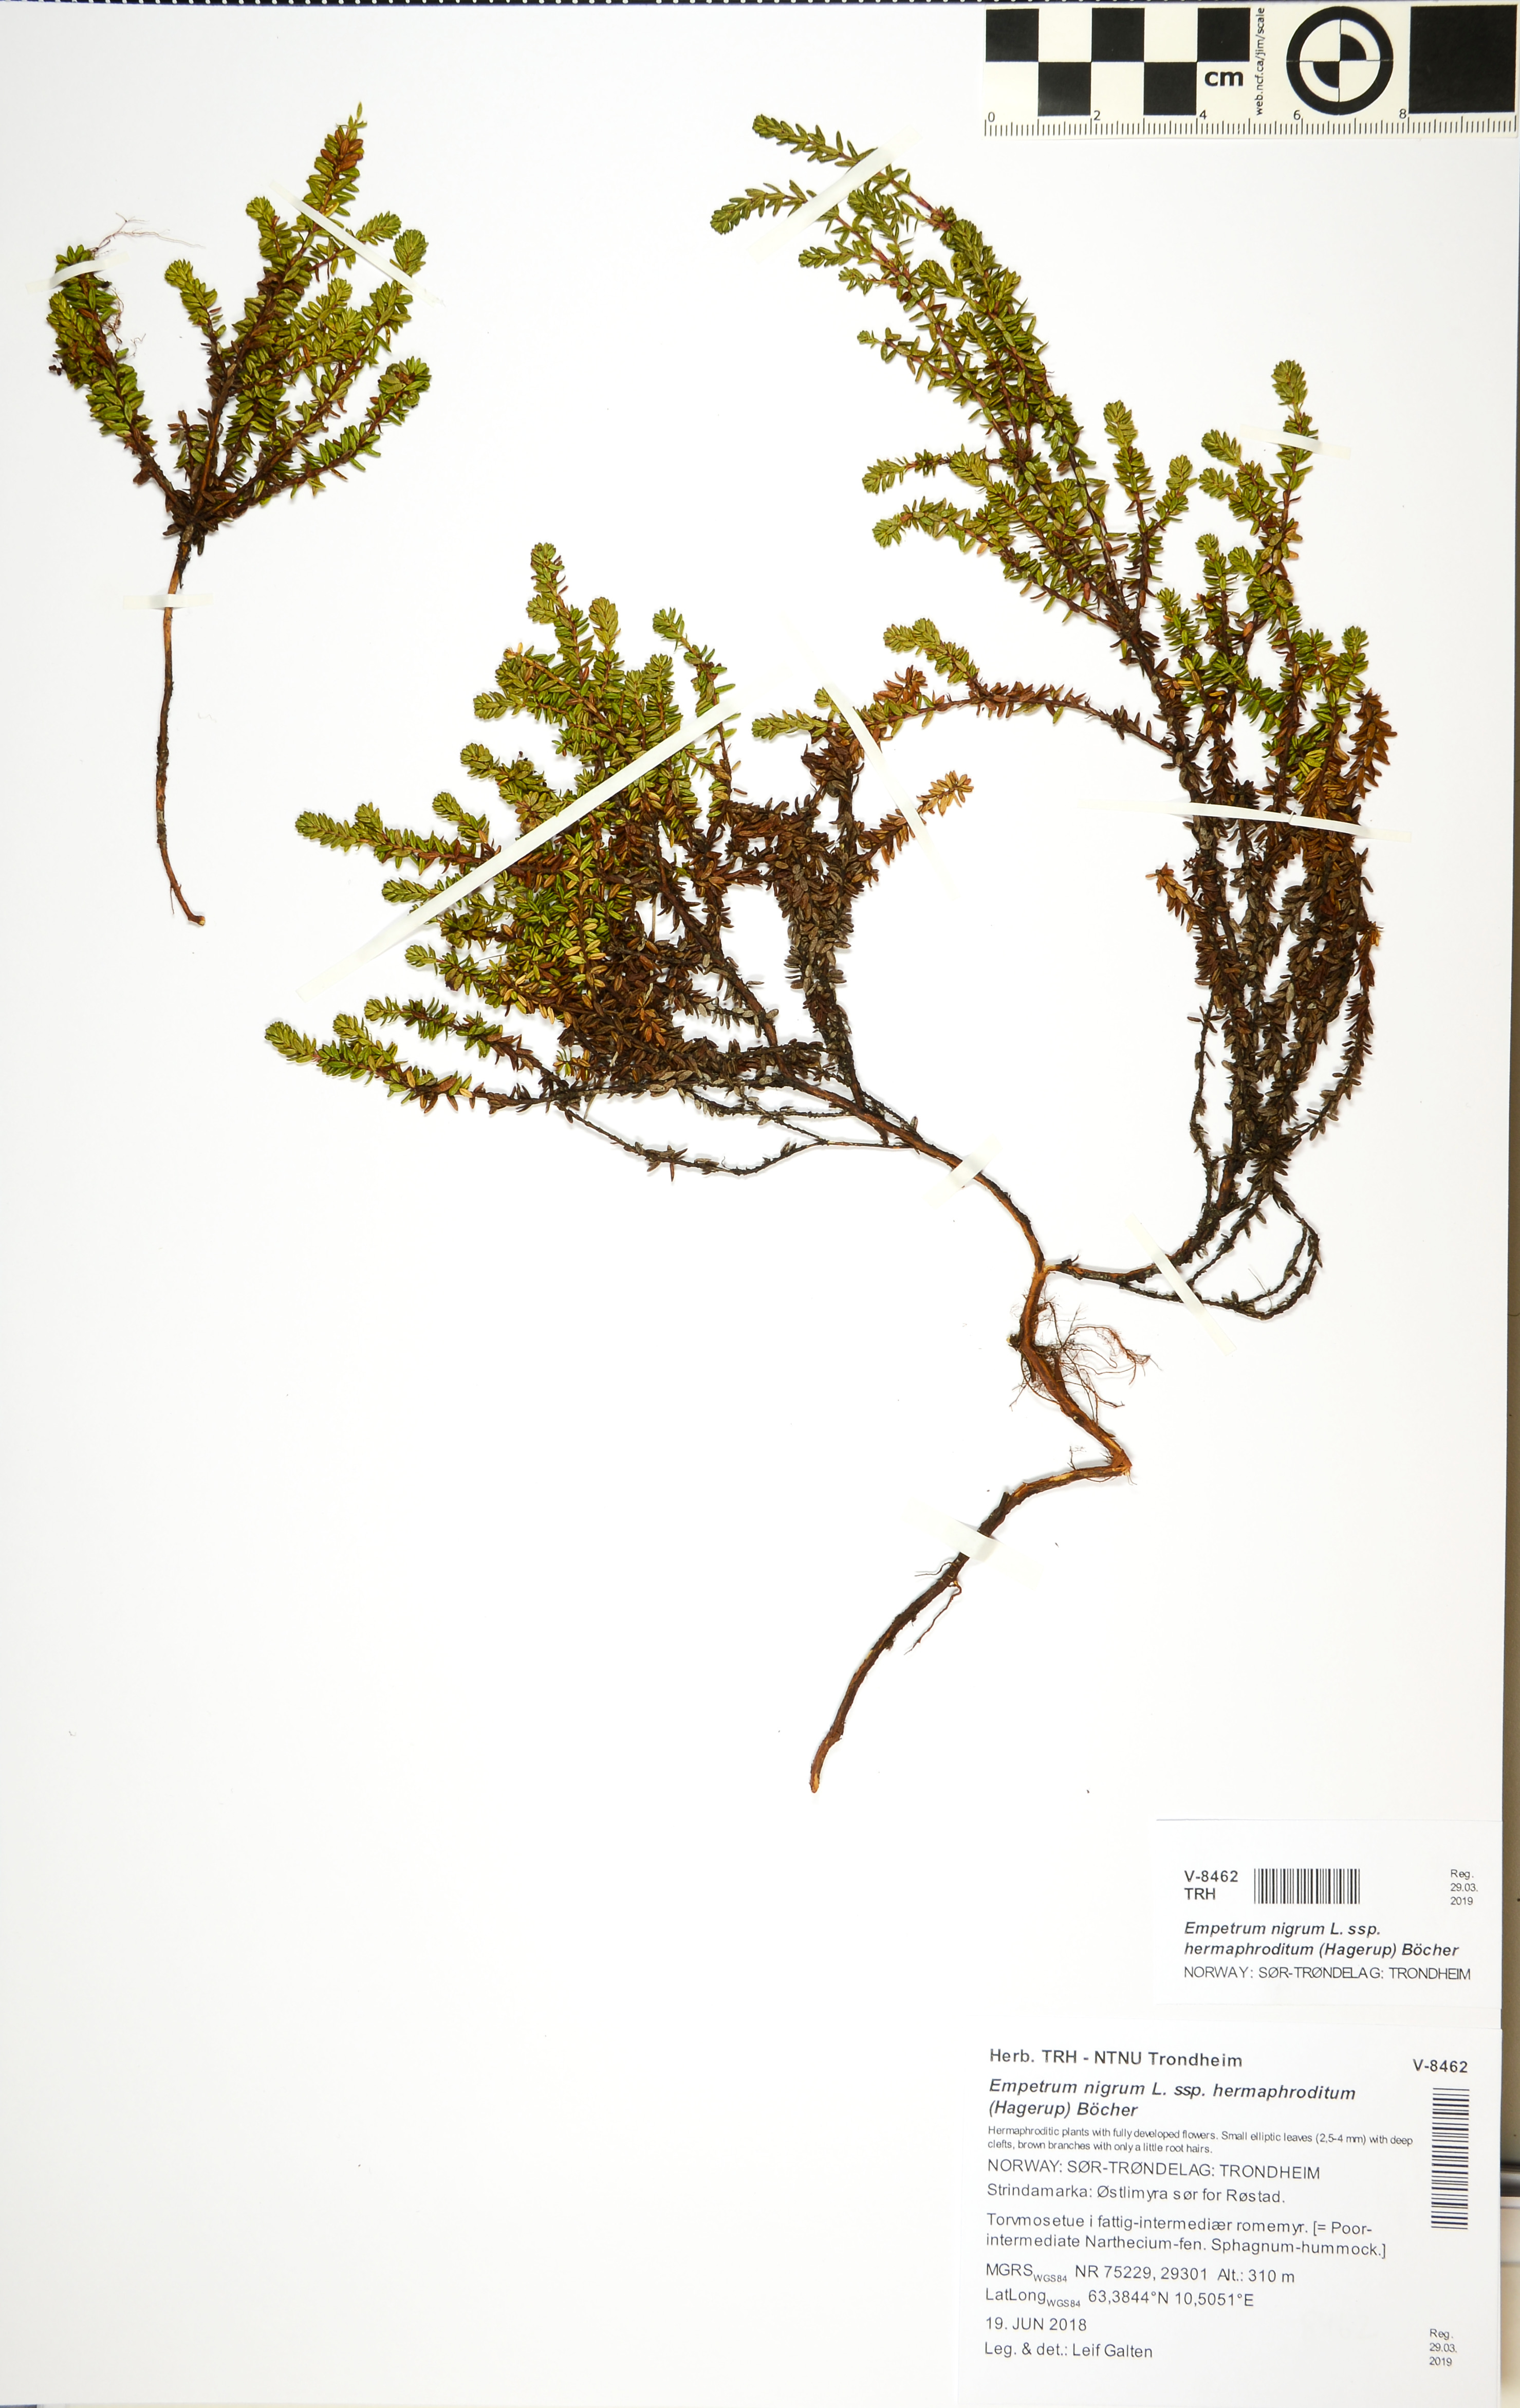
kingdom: Plantae
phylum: Tracheophyta
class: Magnoliopsida
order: Ericales
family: Ericaceae
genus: Empetrum
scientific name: Empetrum hermaphroditum
